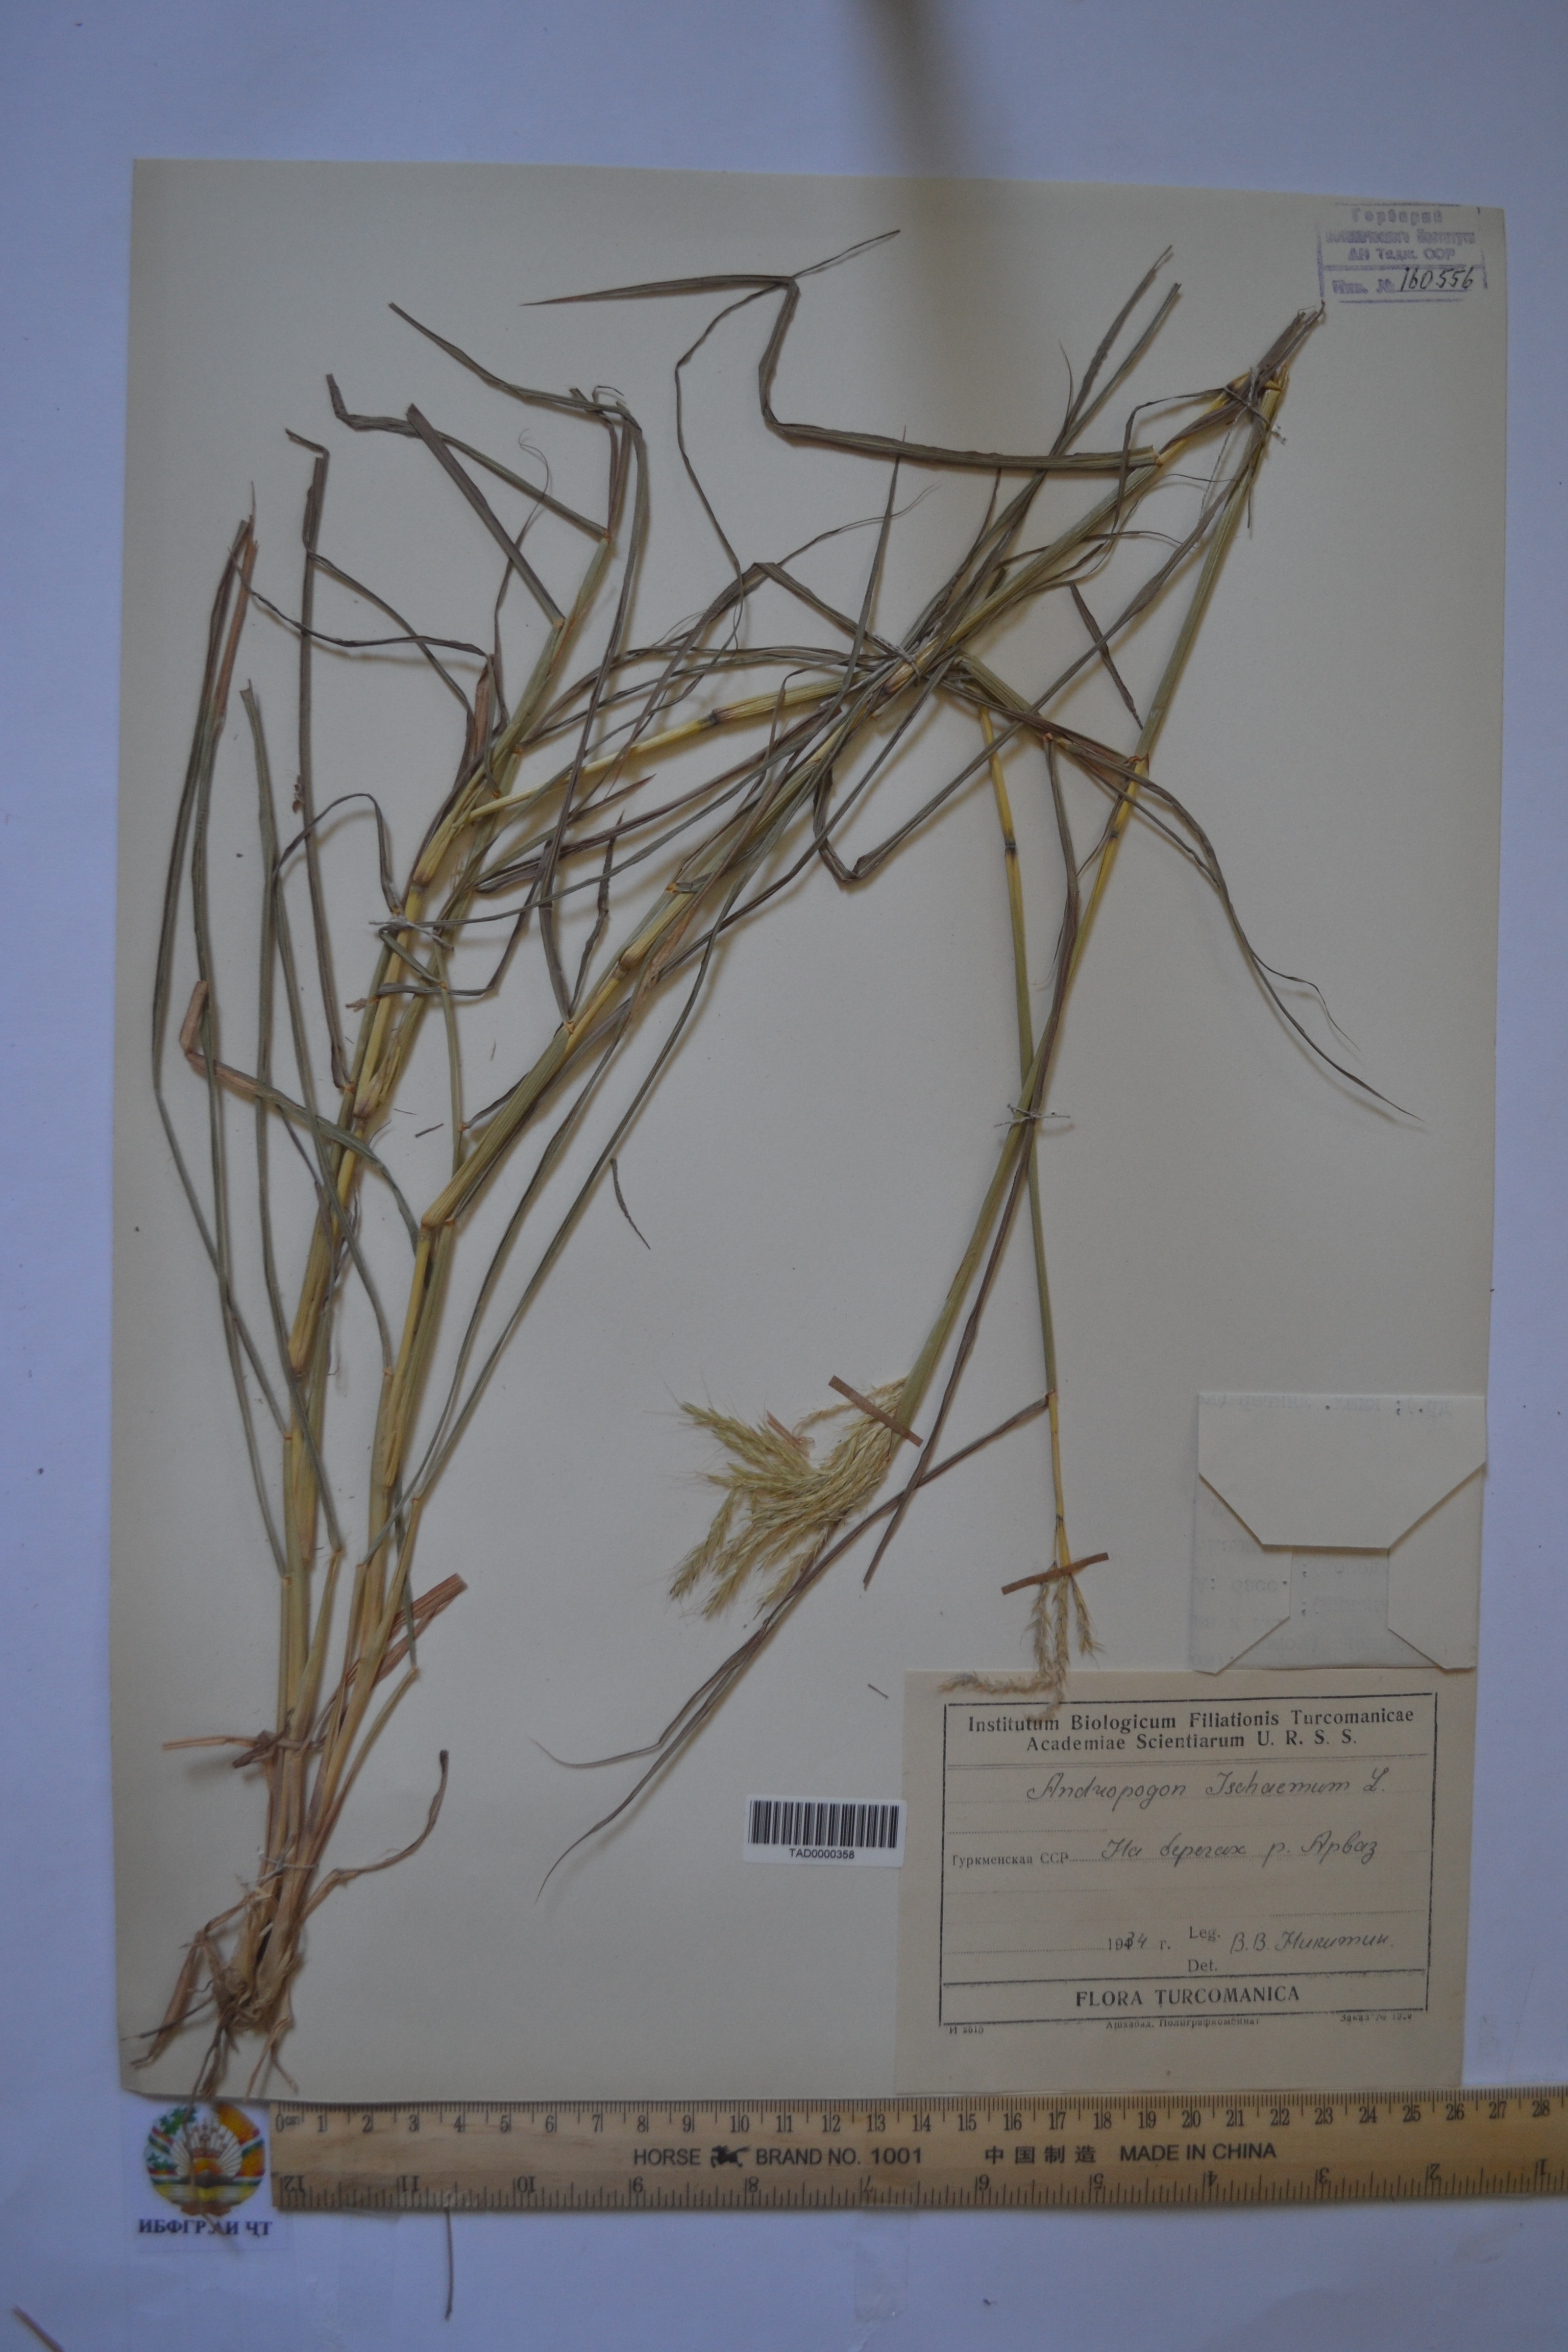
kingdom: Plantae
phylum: Tracheophyta
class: Liliopsida
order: Poales
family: Poaceae
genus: Andropogon
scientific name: Andropogon ischaemum
